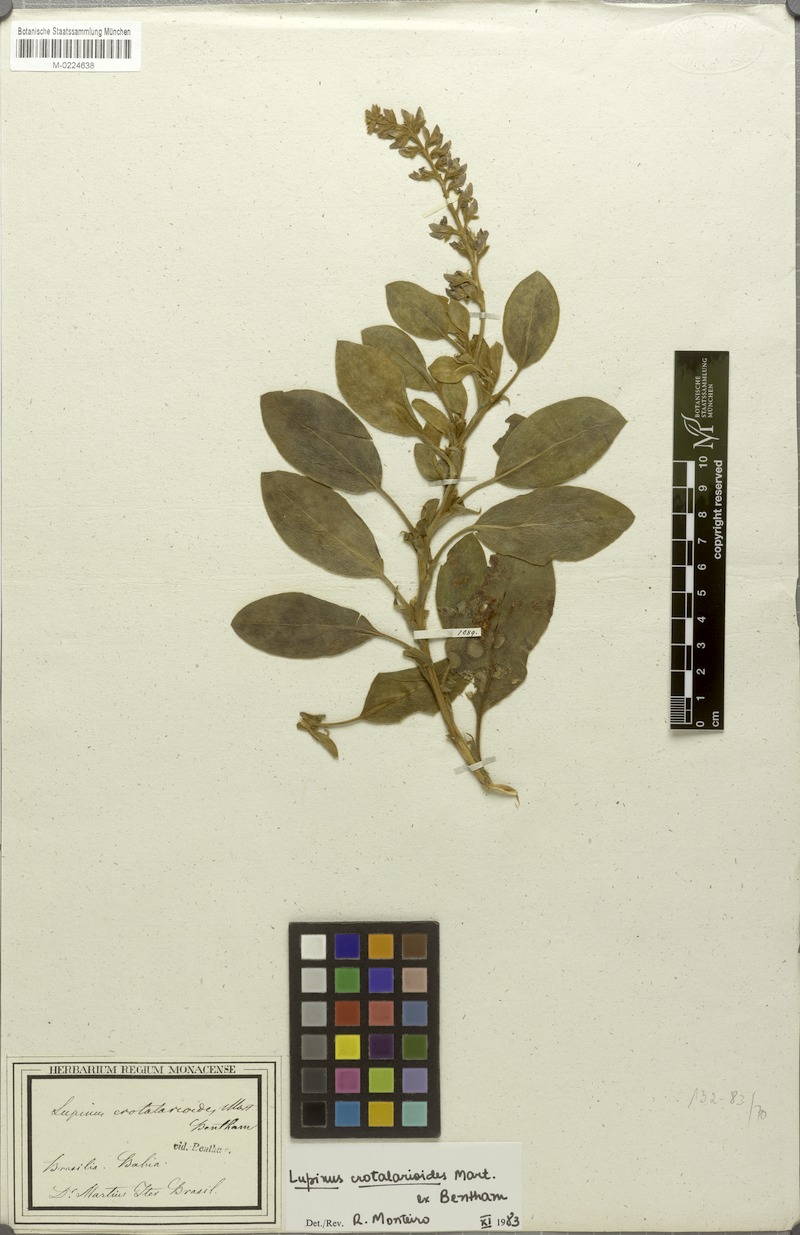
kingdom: Plantae
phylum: Tracheophyta
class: Magnoliopsida
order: Fabales
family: Fabaceae
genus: Lupinus
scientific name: Lupinus crotalarioides
